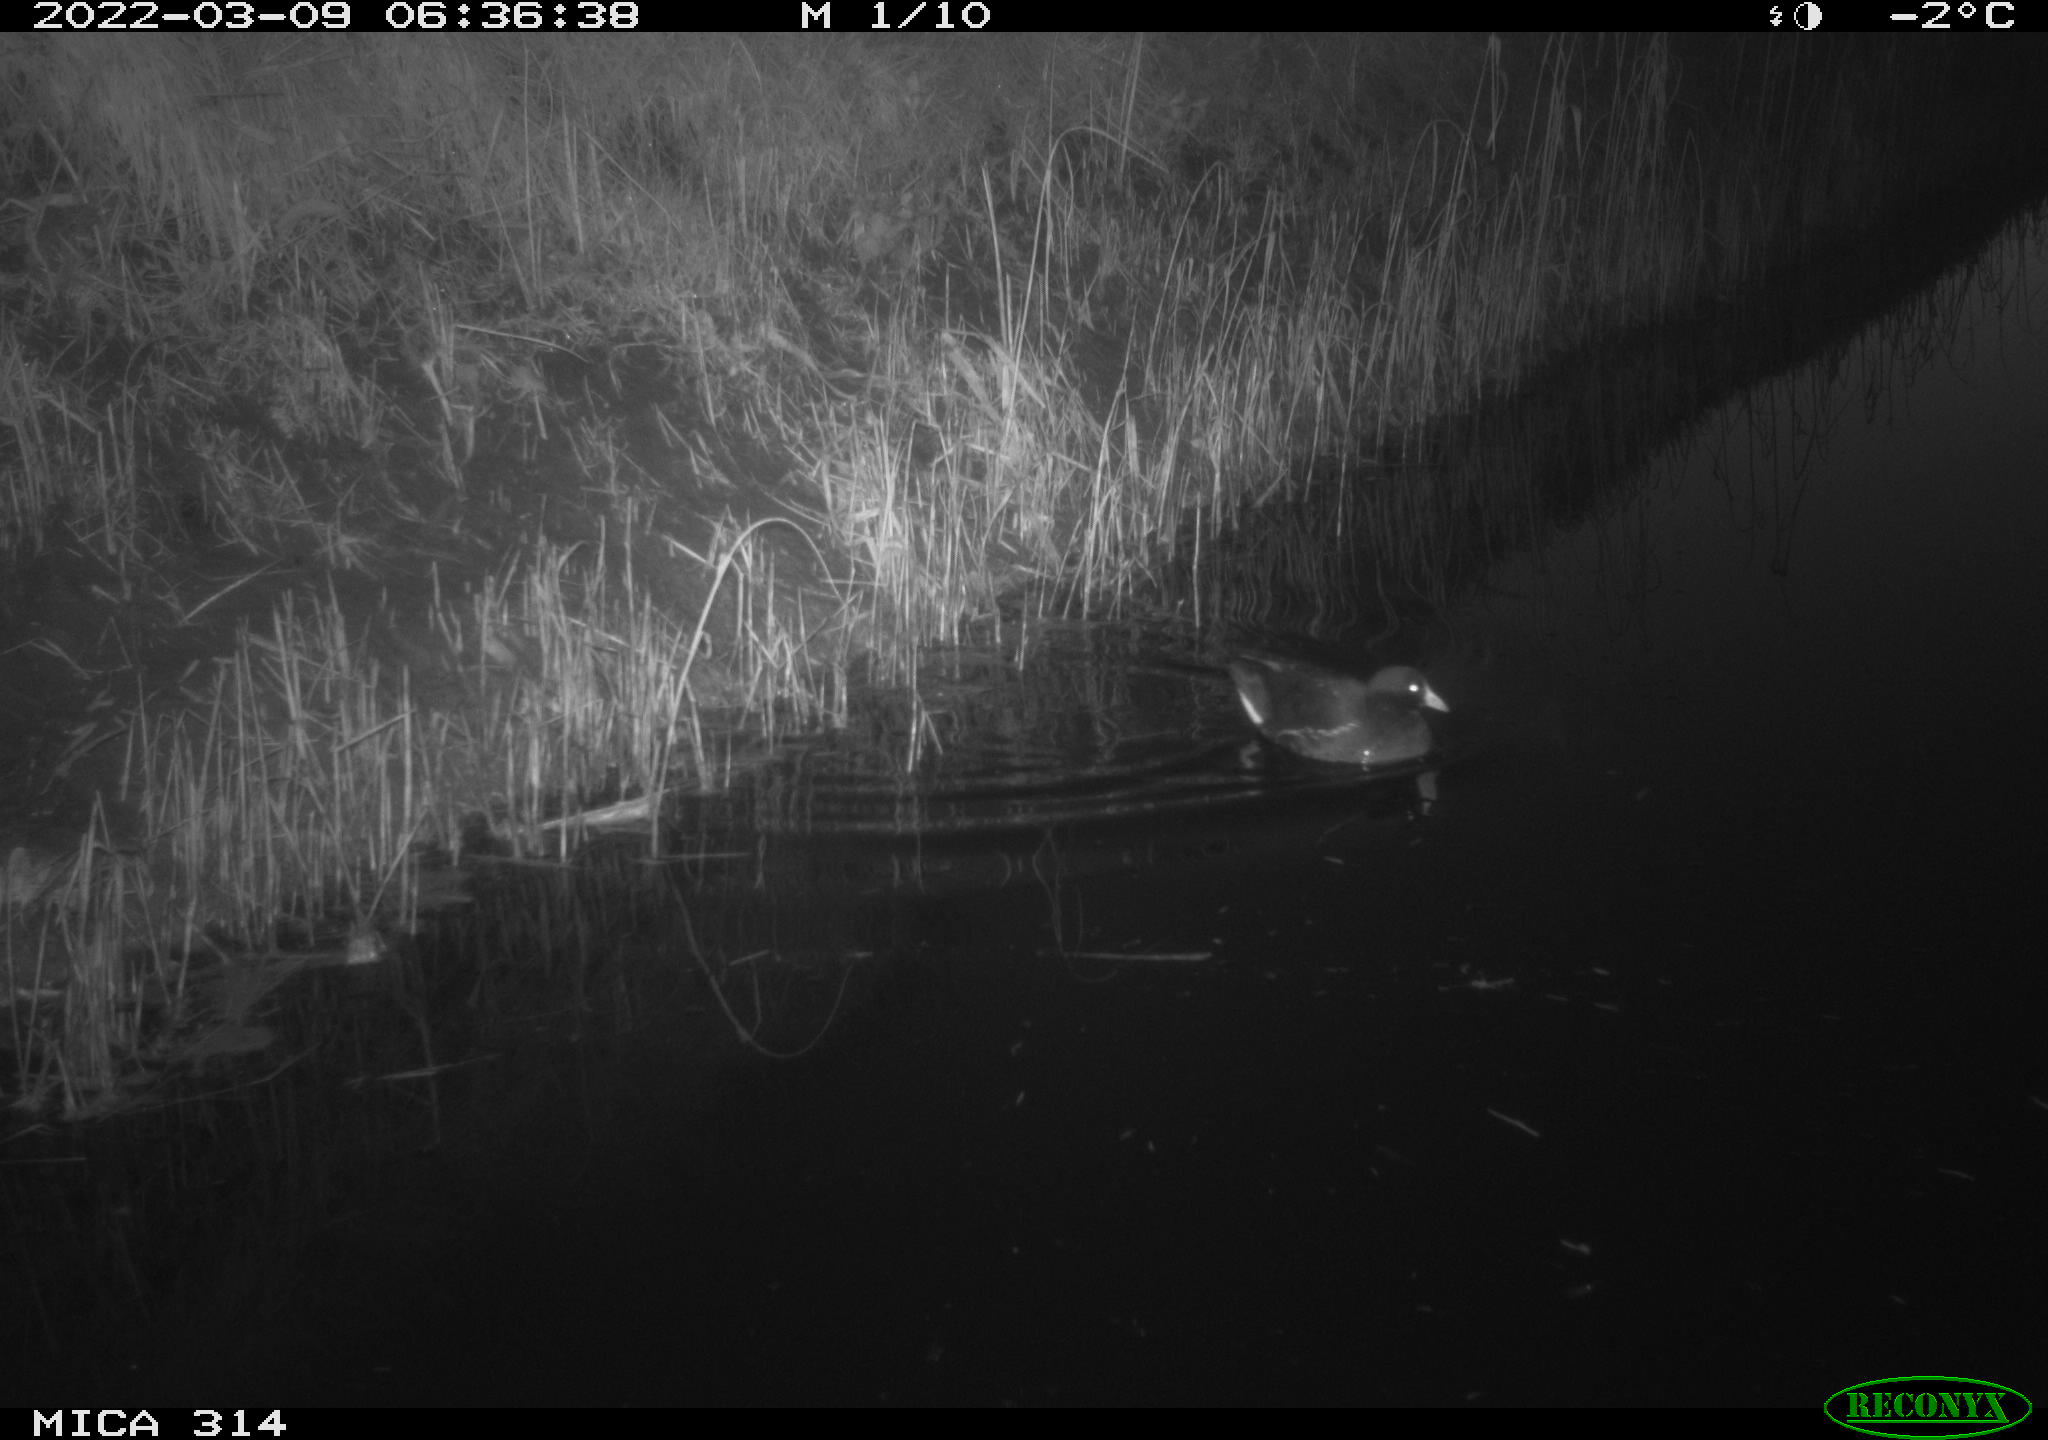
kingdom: Animalia
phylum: Chordata
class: Aves
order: Gruiformes
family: Rallidae
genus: Gallinula
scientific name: Gallinula chloropus
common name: Common moorhen
